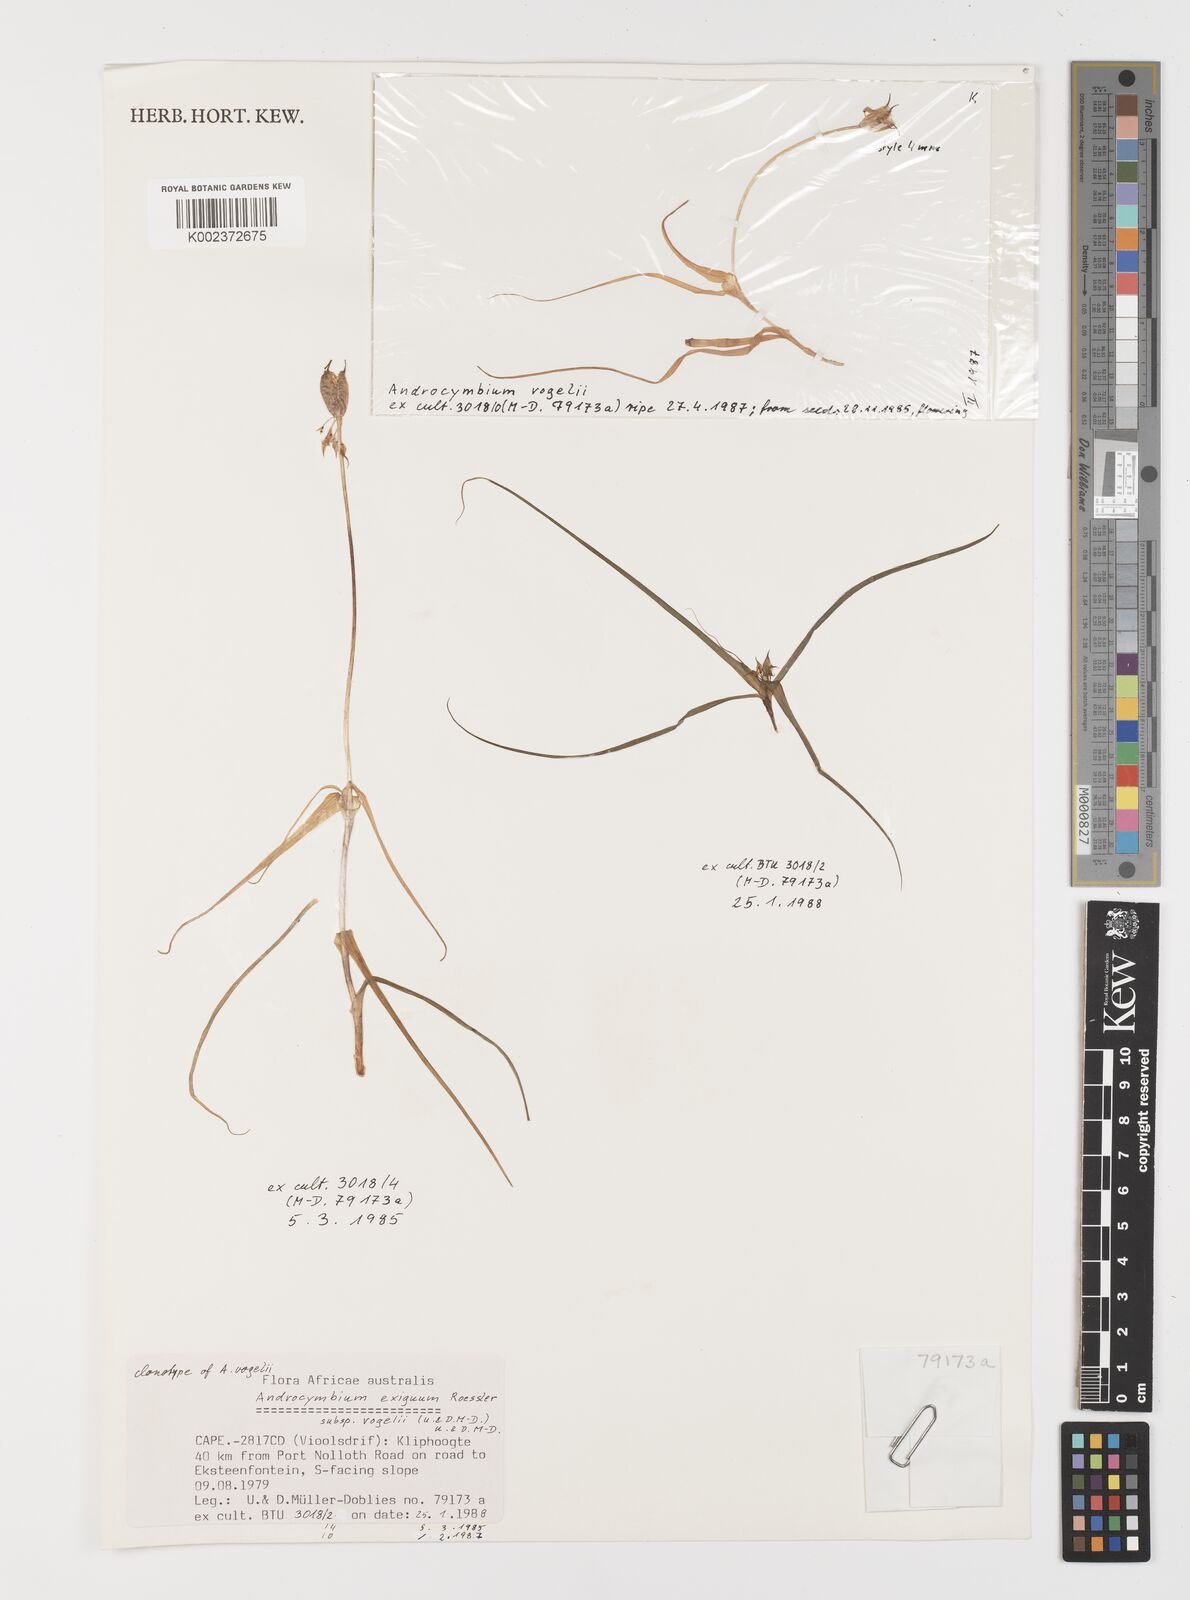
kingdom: Plantae
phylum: Tracheophyta
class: Liliopsida
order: Liliales
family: Colchicaceae
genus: Colchicum
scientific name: Colchicum exiguum
